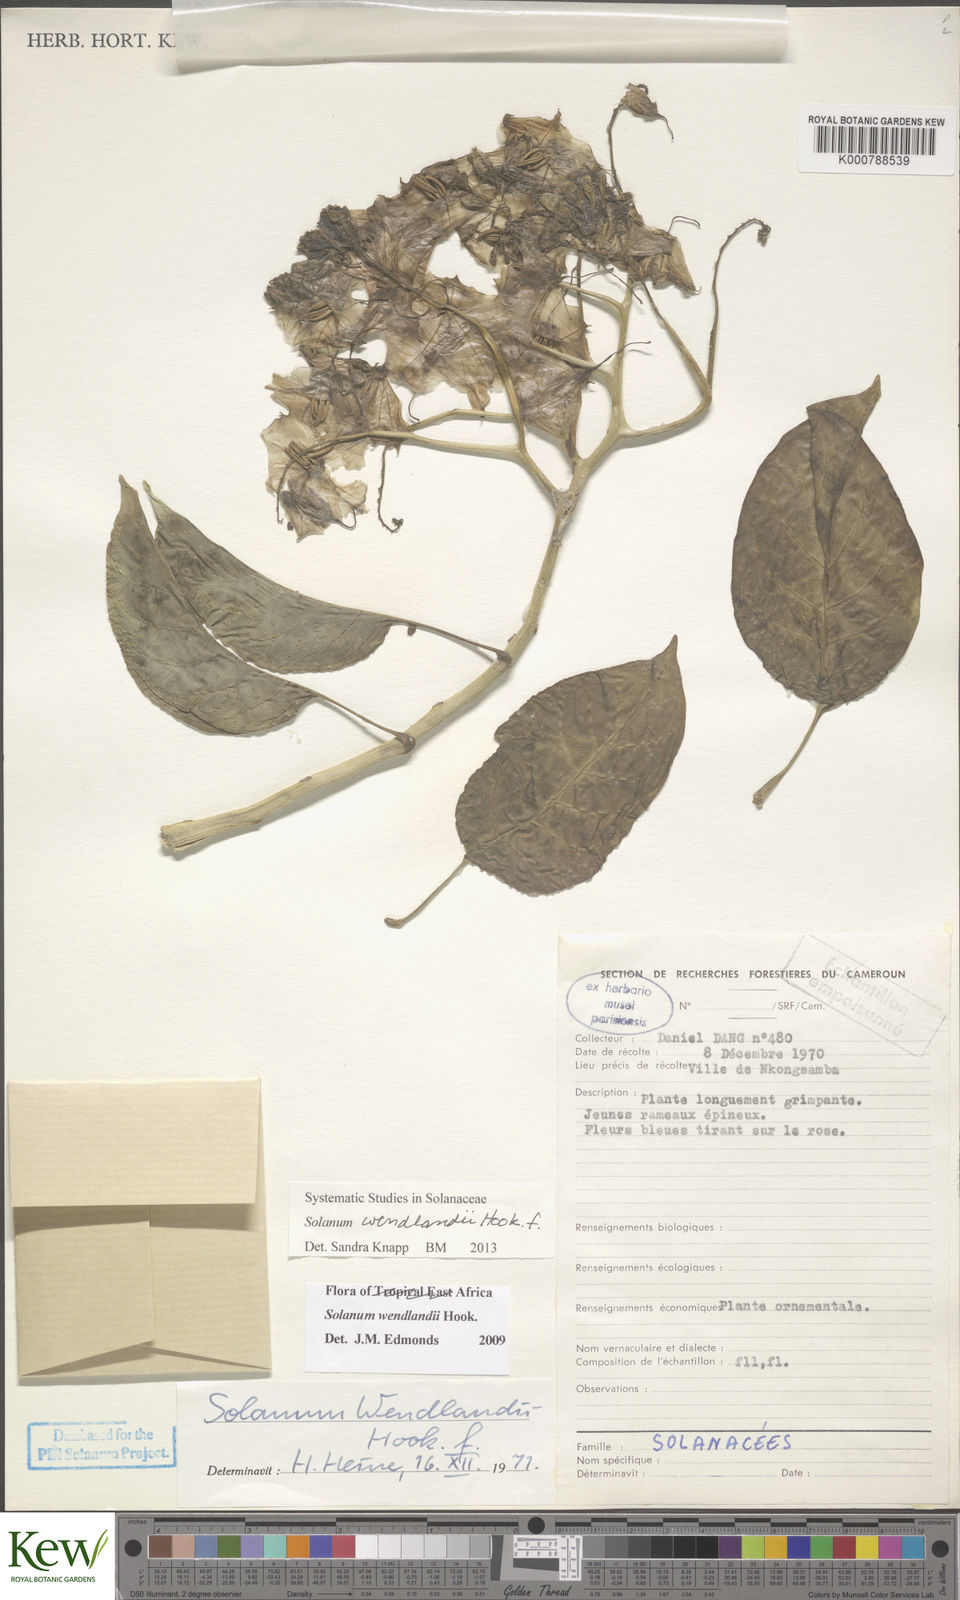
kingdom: Plantae
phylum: Tracheophyta
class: Magnoliopsida
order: Solanales
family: Solanaceae
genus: Solanum
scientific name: Solanum wendlandii
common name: Costa rican nightshade
